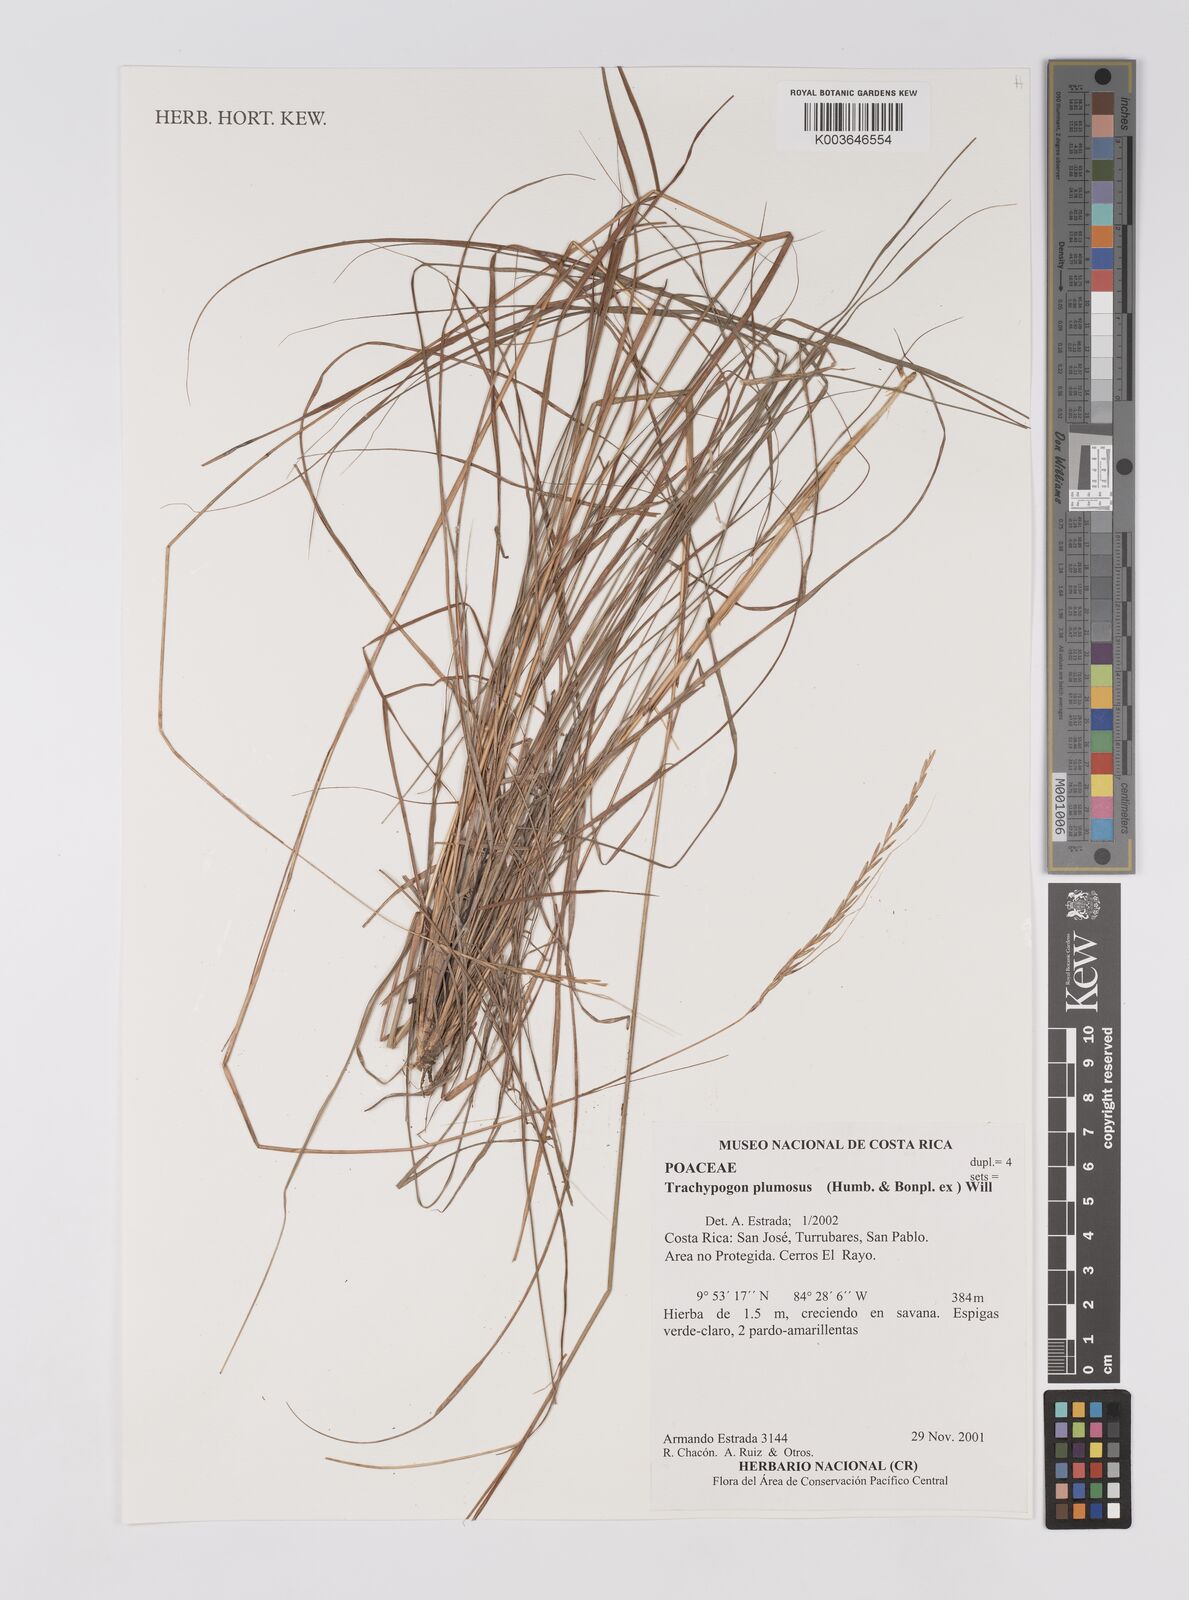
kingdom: Plantae
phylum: Tracheophyta
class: Liliopsida
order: Poales
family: Poaceae
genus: Trachypogon
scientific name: Trachypogon spicatus
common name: Crinkle-awn
